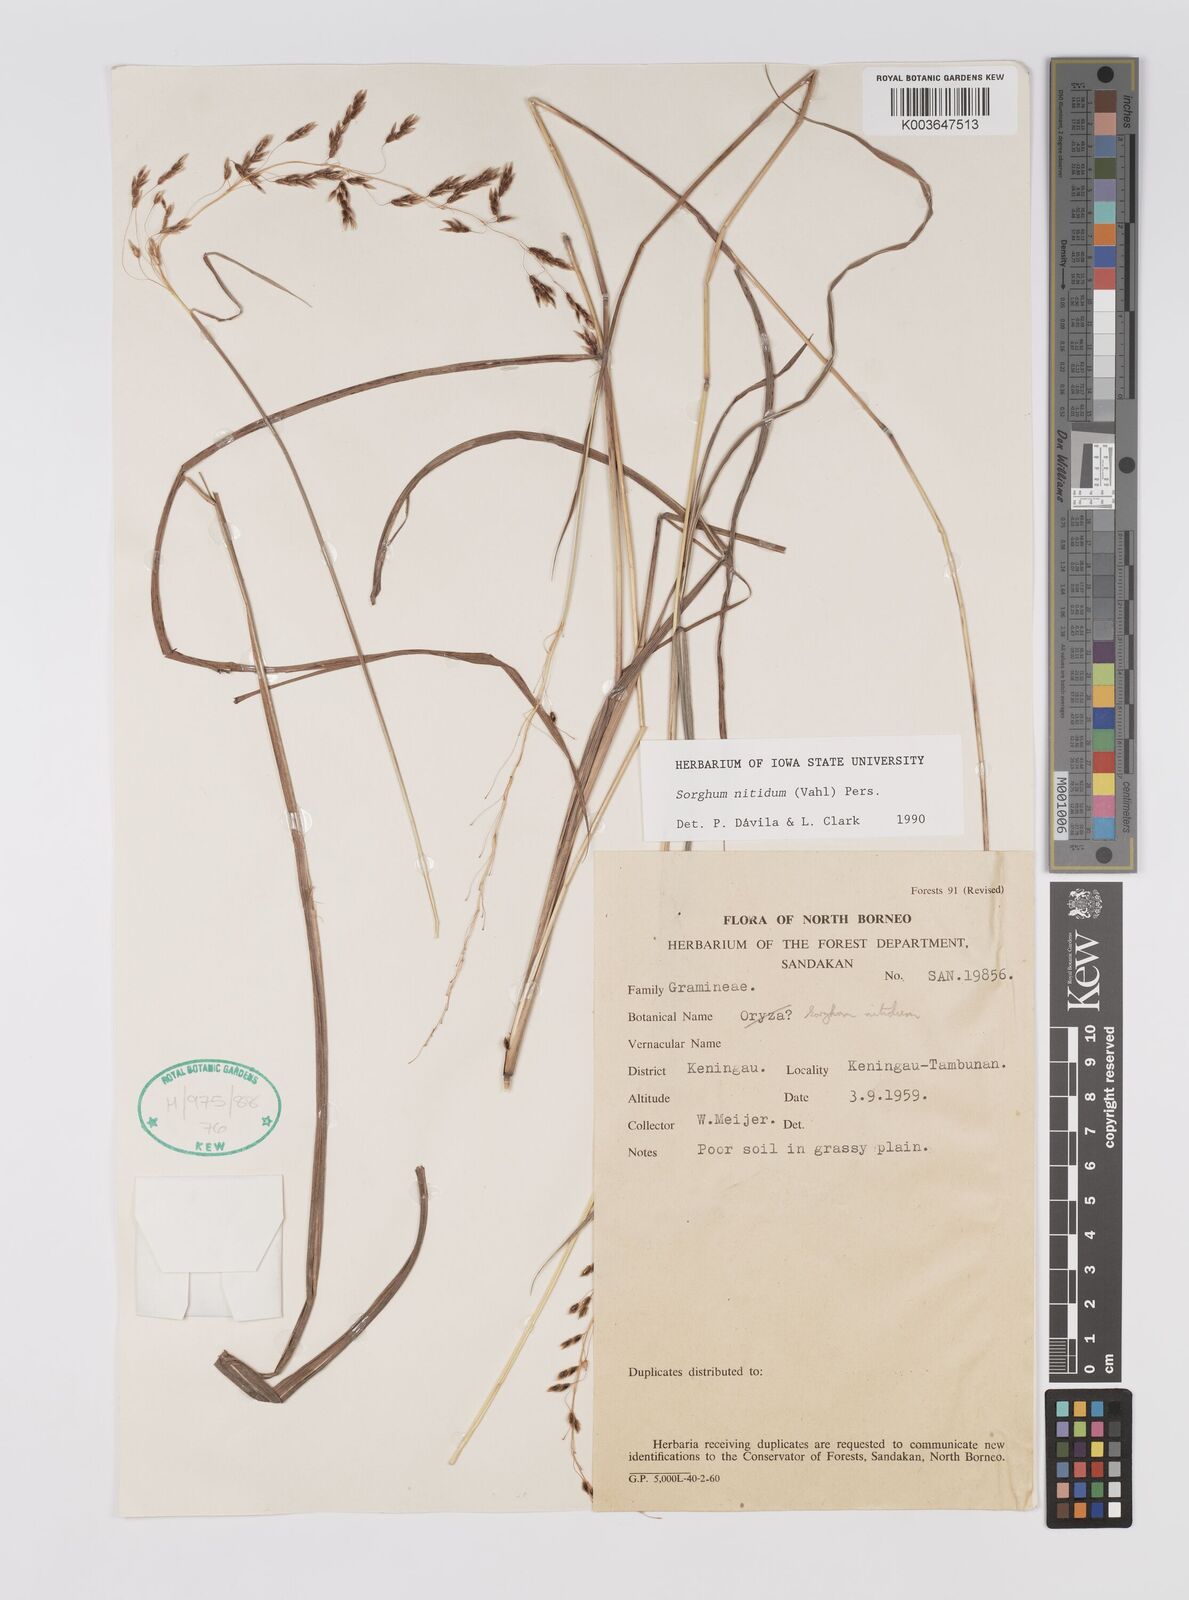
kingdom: Plantae
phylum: Tracheophyta
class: Liliopsida
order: Poales
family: Poaceae
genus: Sorghum
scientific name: Sorghum nitidum
